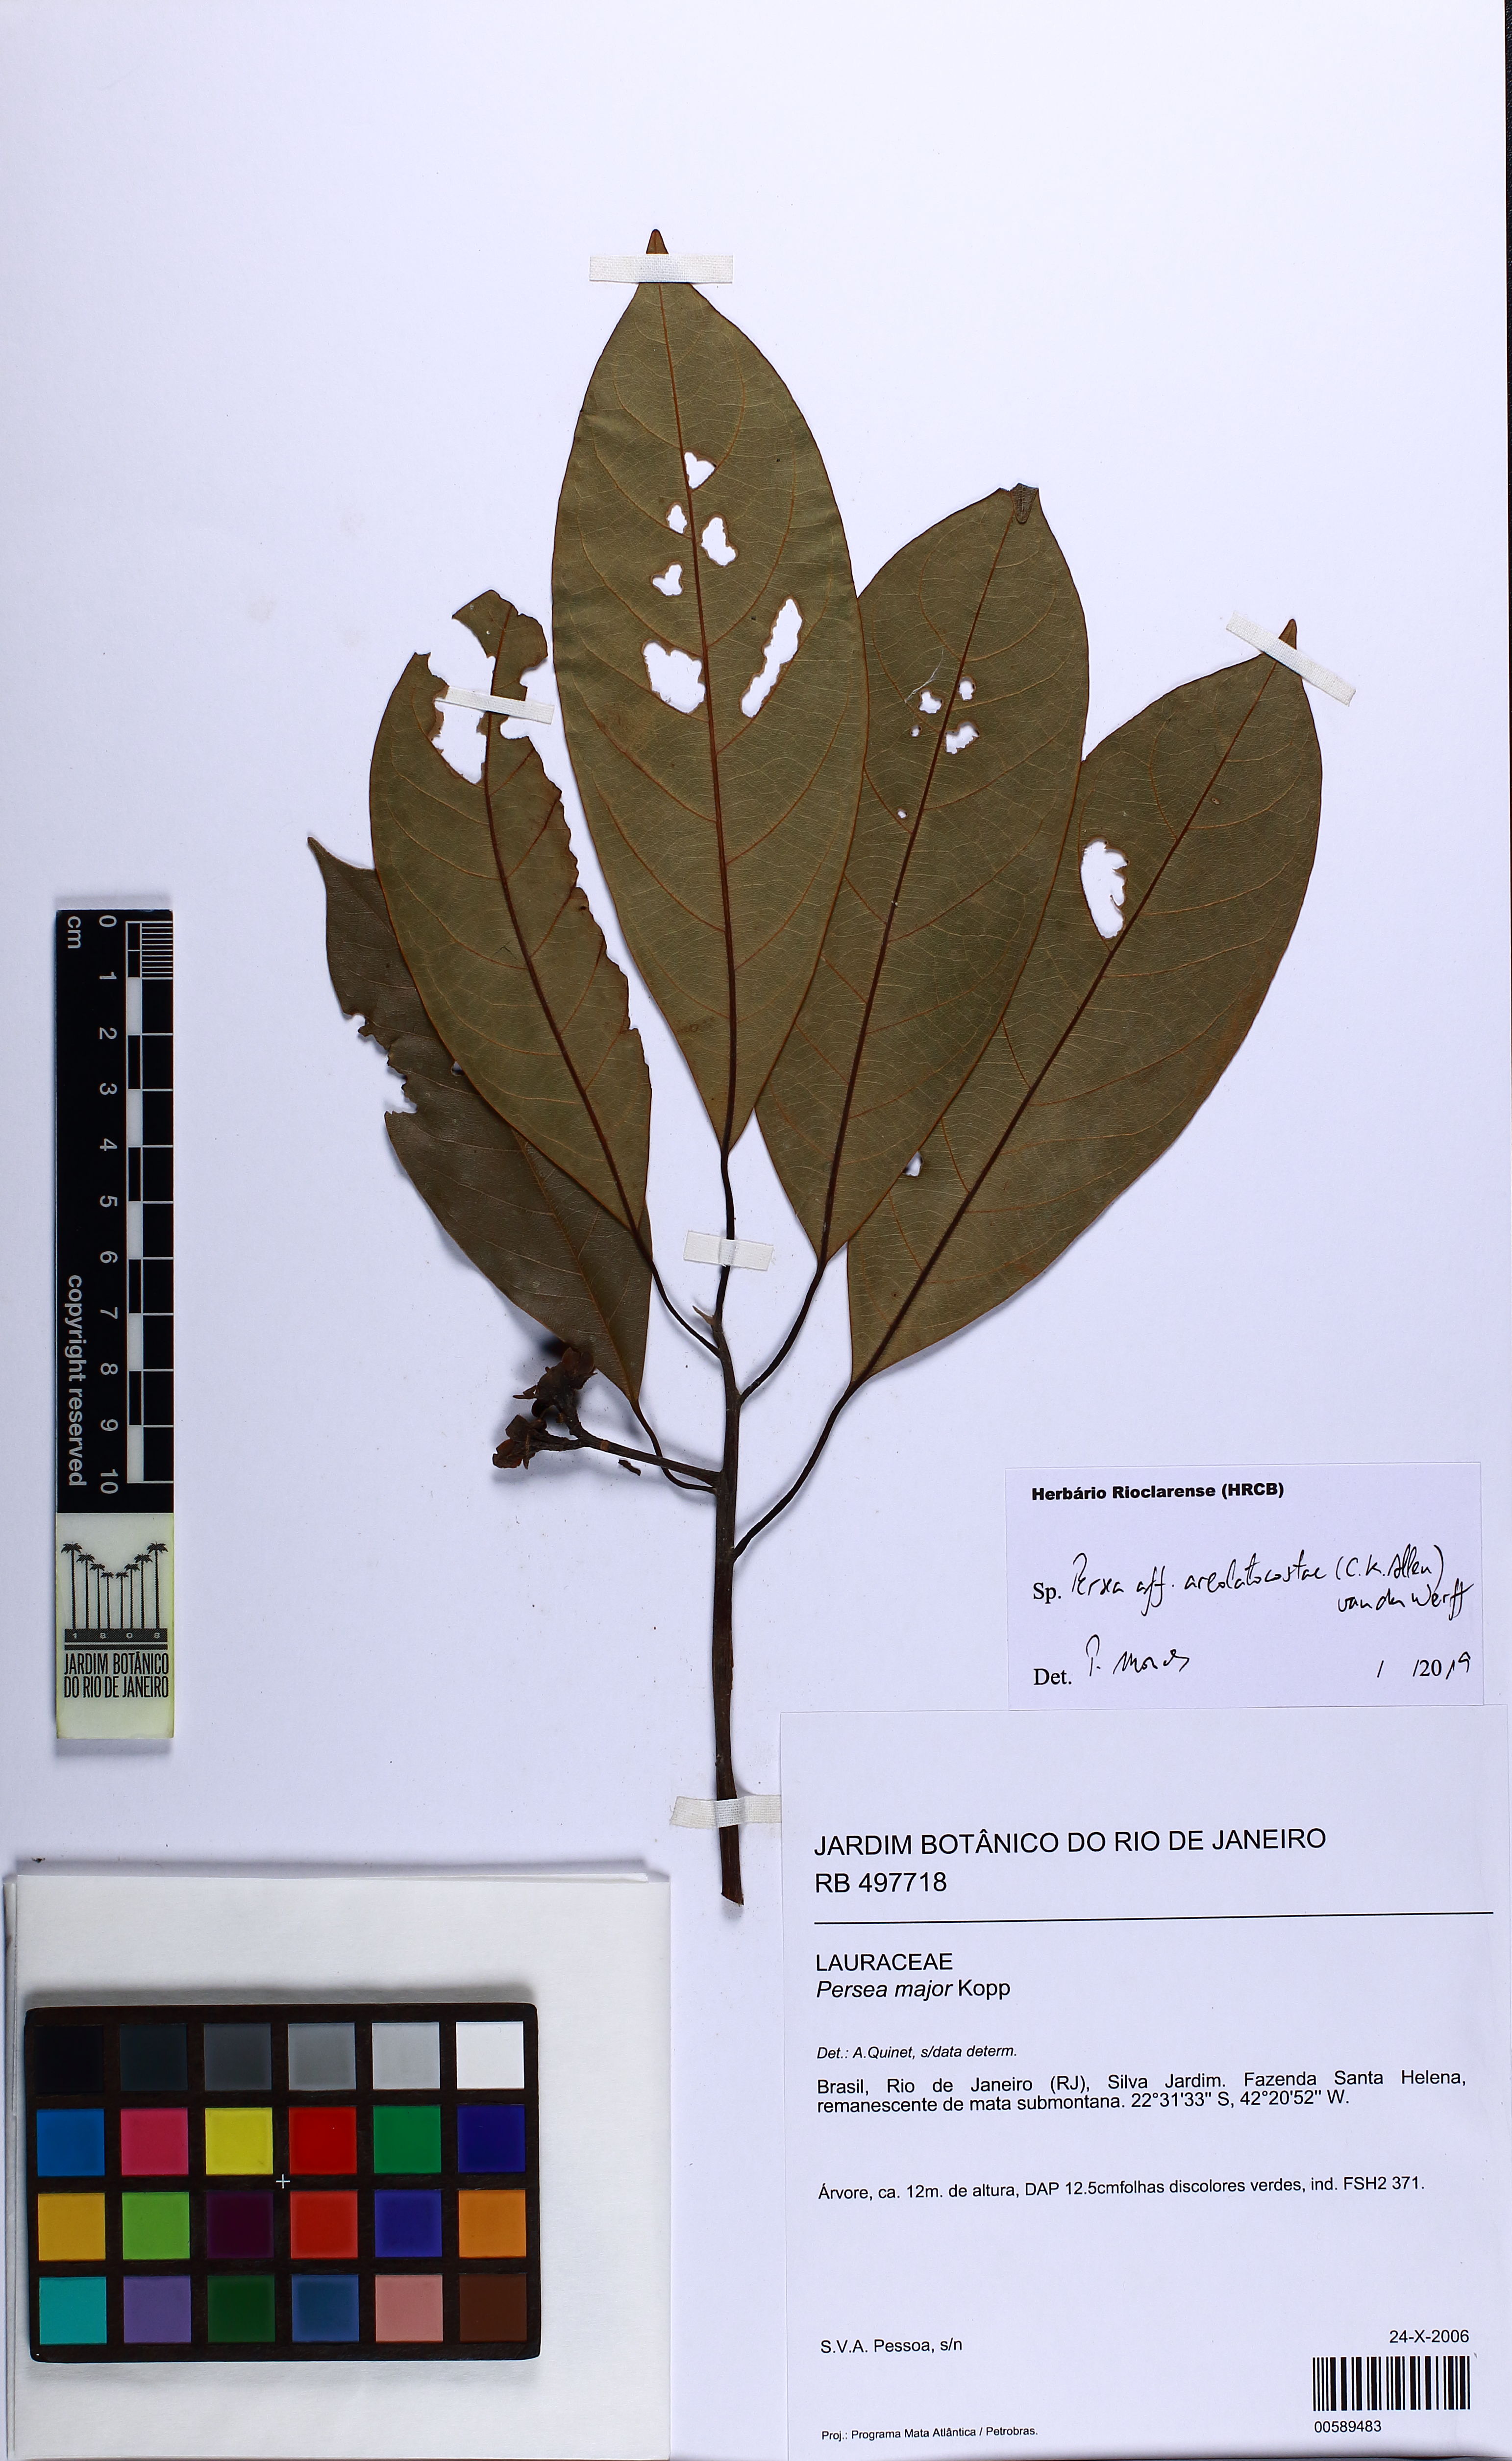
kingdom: Plantae
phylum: Tracheophyta
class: Magnoliopsida
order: Laurales
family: Lauraceae
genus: Persea
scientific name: Persea areolatocostae
